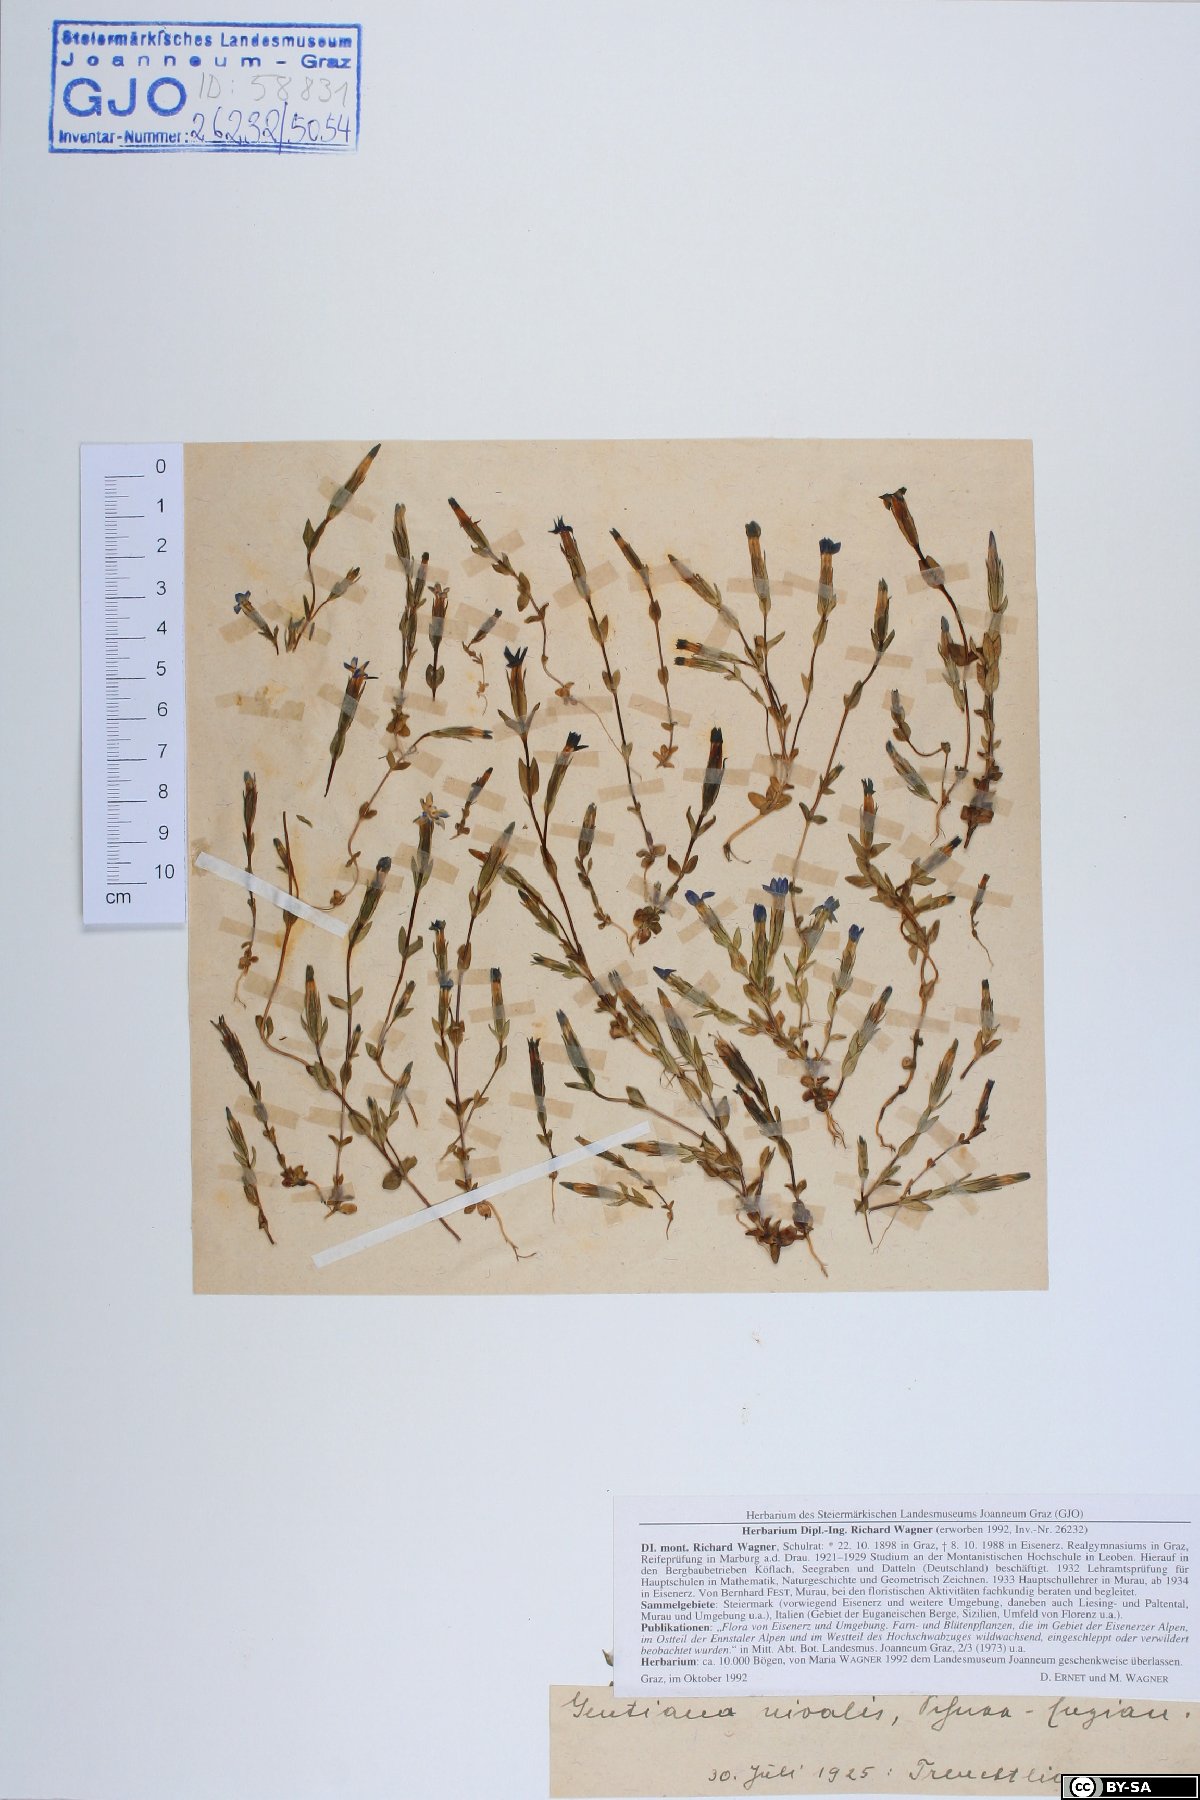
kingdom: Plantae
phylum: Tracheophyta
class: Magnoliopsida
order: Gentianales
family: Gentianaceae
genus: Gentiana
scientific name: Gentiana nivalis
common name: Alpine gentian
